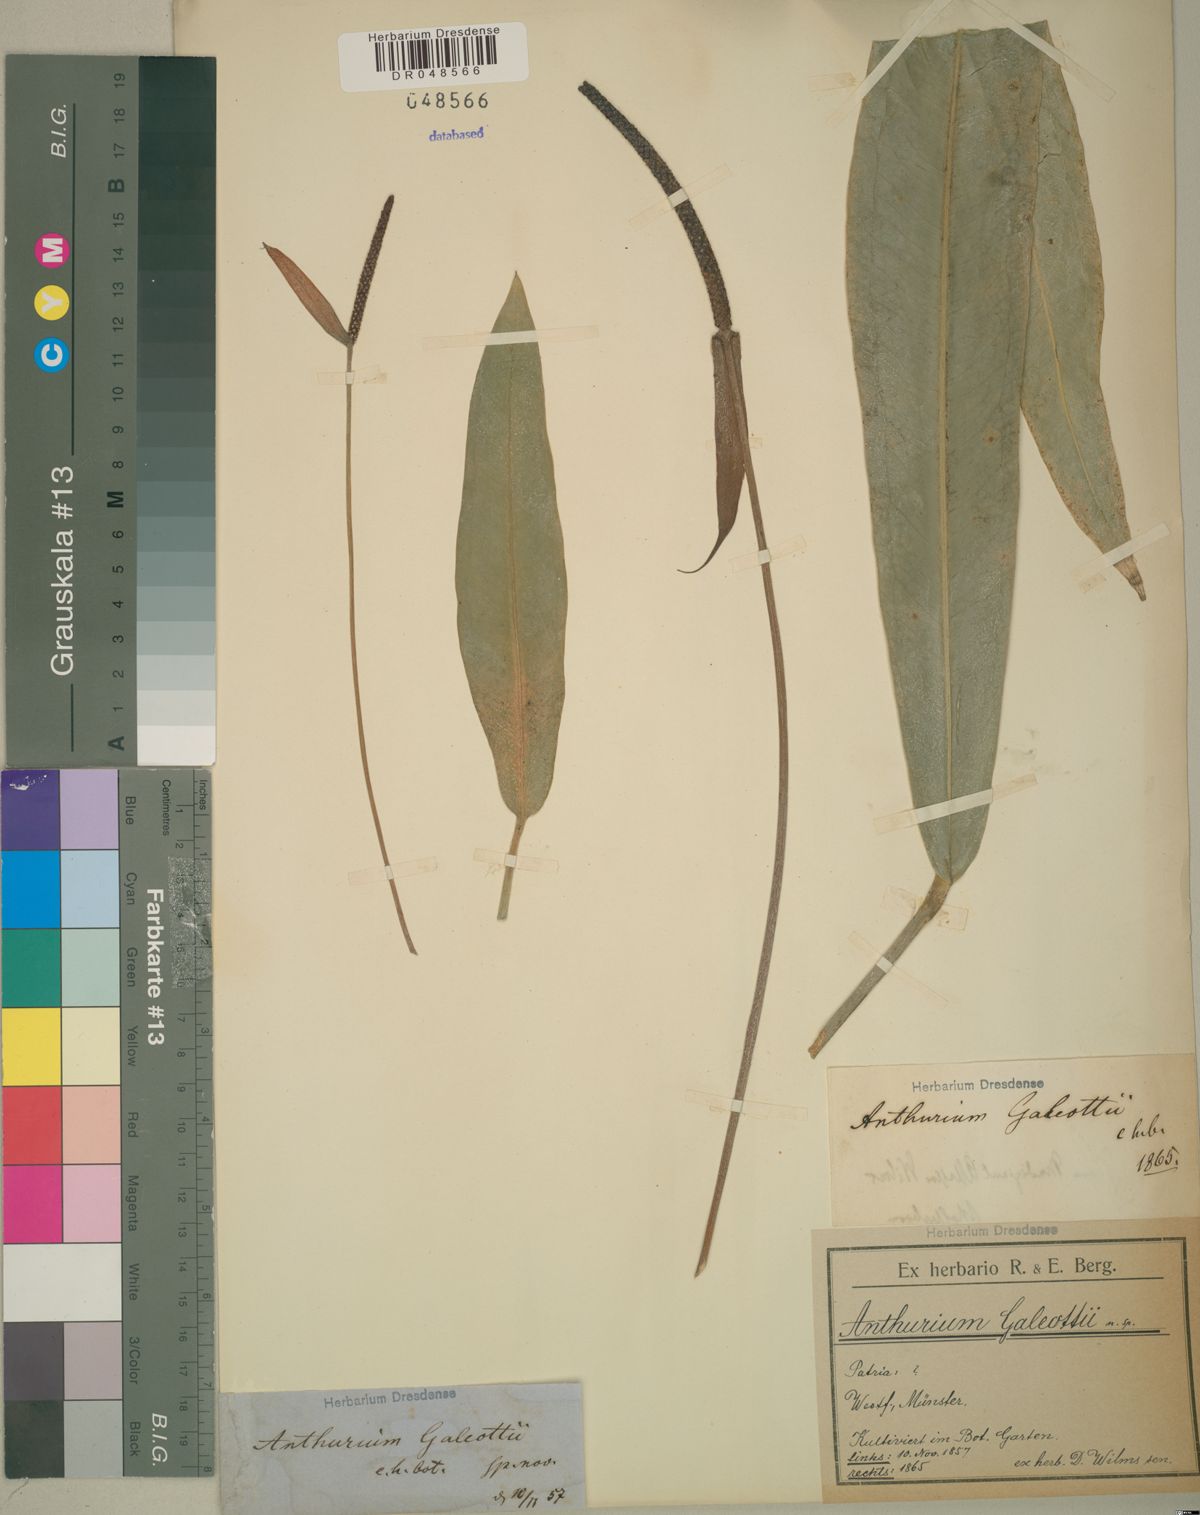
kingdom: Plantae
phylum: Tracheophyta
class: Liliopsida
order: Alismatales
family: Araceae
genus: Anthurium
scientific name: Anthurium galeottii
